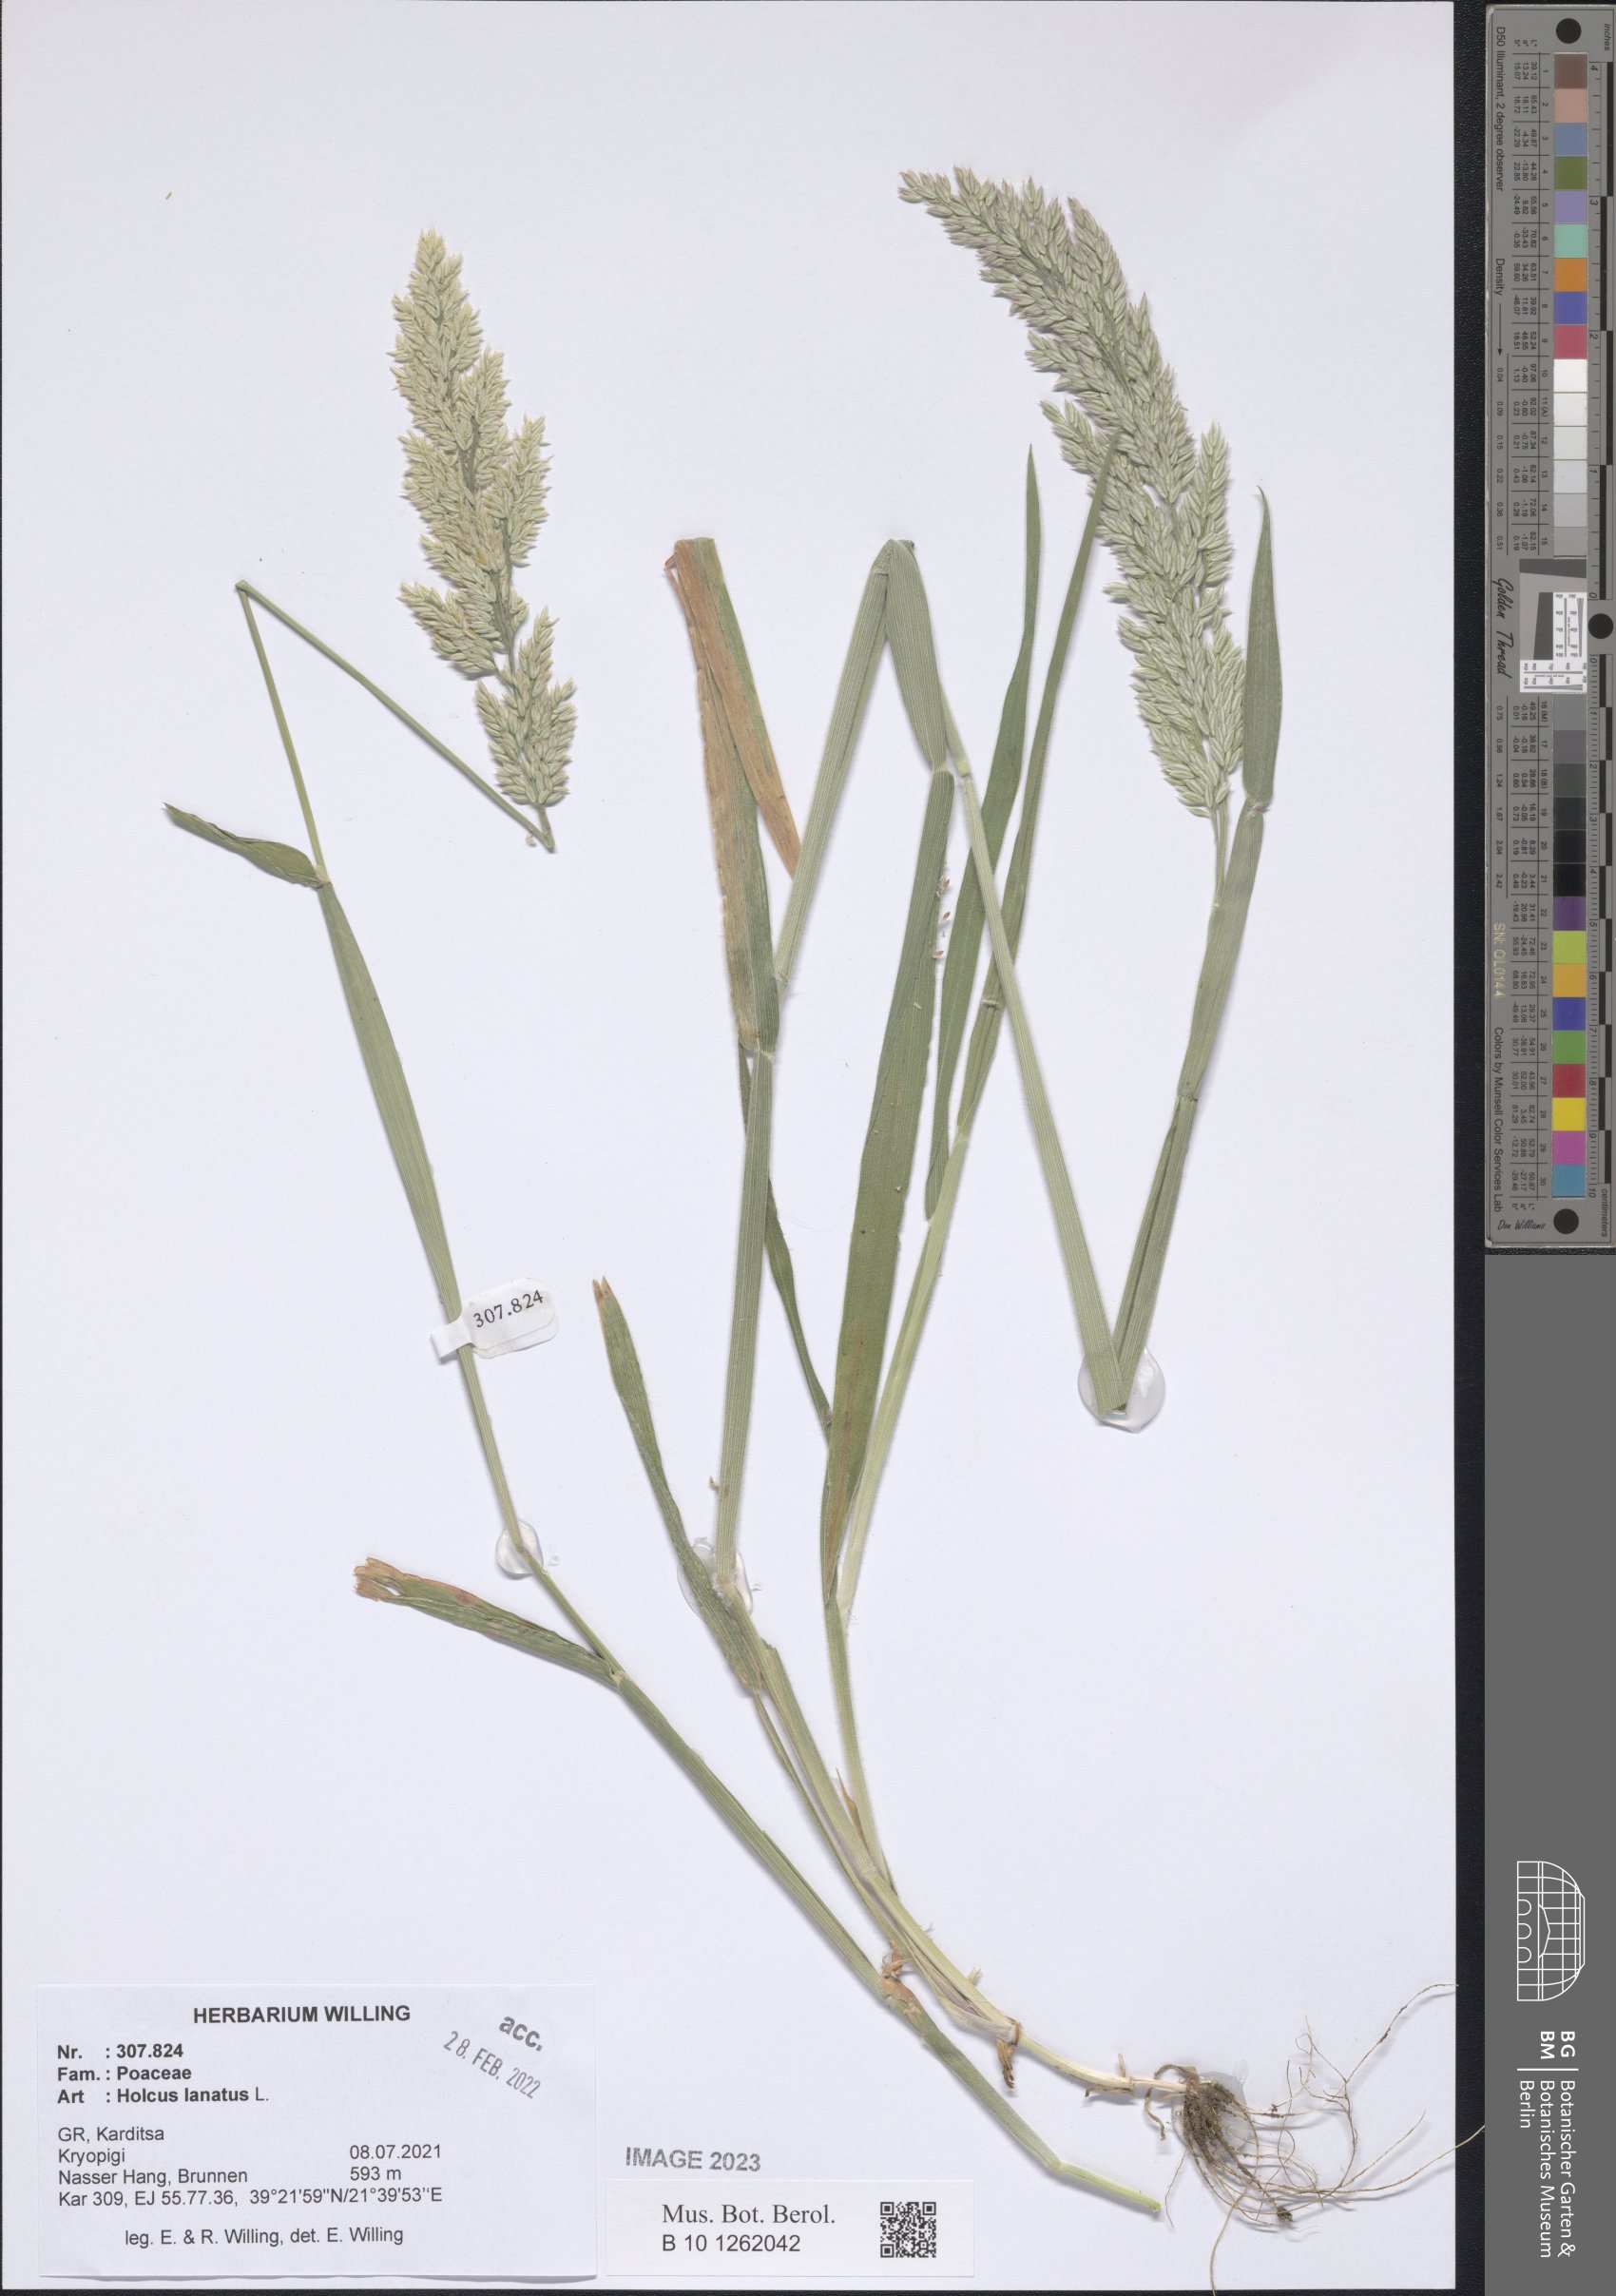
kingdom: Plantae
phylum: Tracheophyta
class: Liliopsida
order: Poales
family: Poaceae
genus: Holcus
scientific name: Holcus lanatus
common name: Yorkshire-fog
